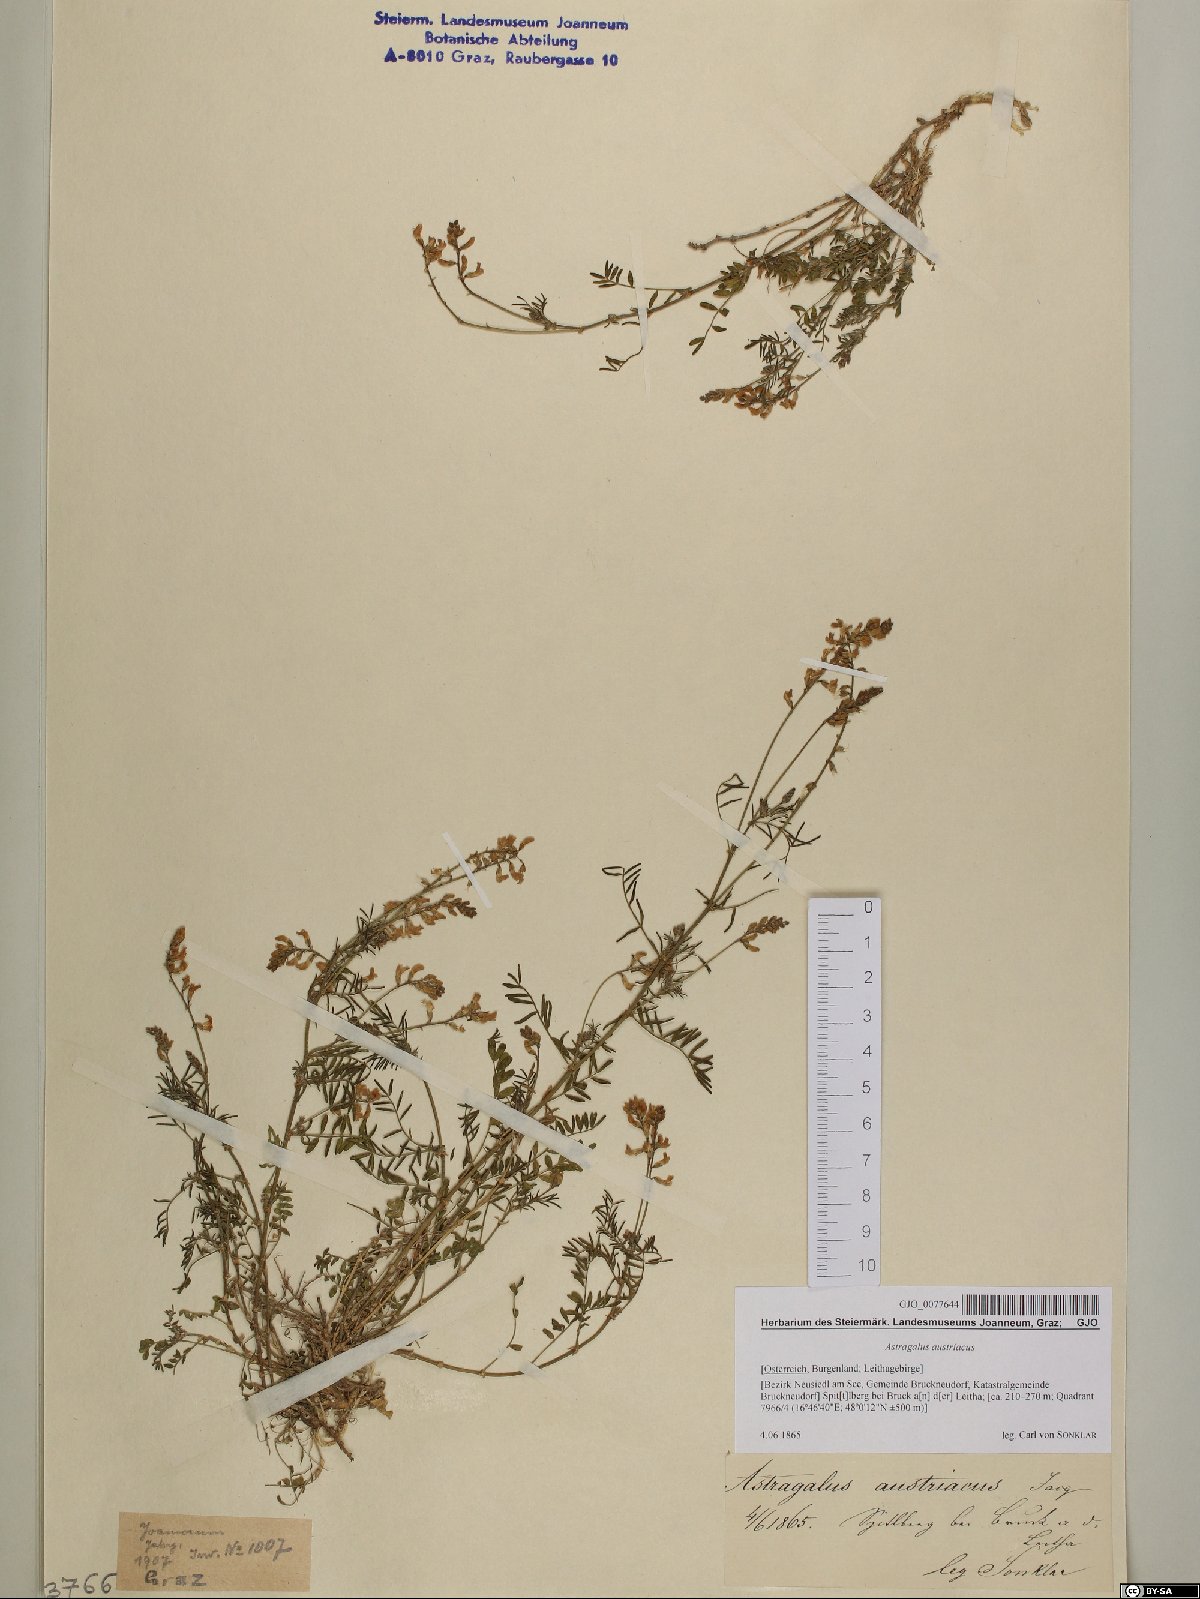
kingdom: Plantae
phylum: Tracheophyta
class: Magnoliopsida
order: Fabales
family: Fabaceae
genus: Astragalus
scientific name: Astragalus austriacus
